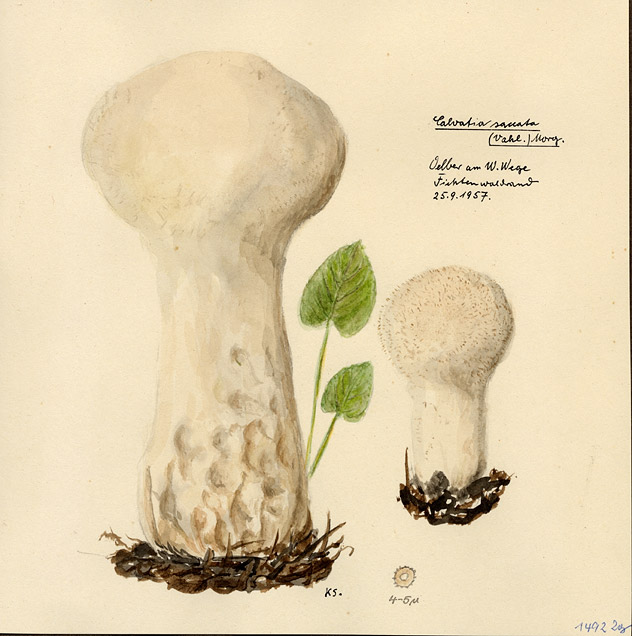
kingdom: Fungi
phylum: Basidiomycota
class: Agaricomycetes
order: Agaricales
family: Lycoperdaceae
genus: Lycoperdon
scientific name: Lycoperdon excipuliforme
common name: Pestle puffball
